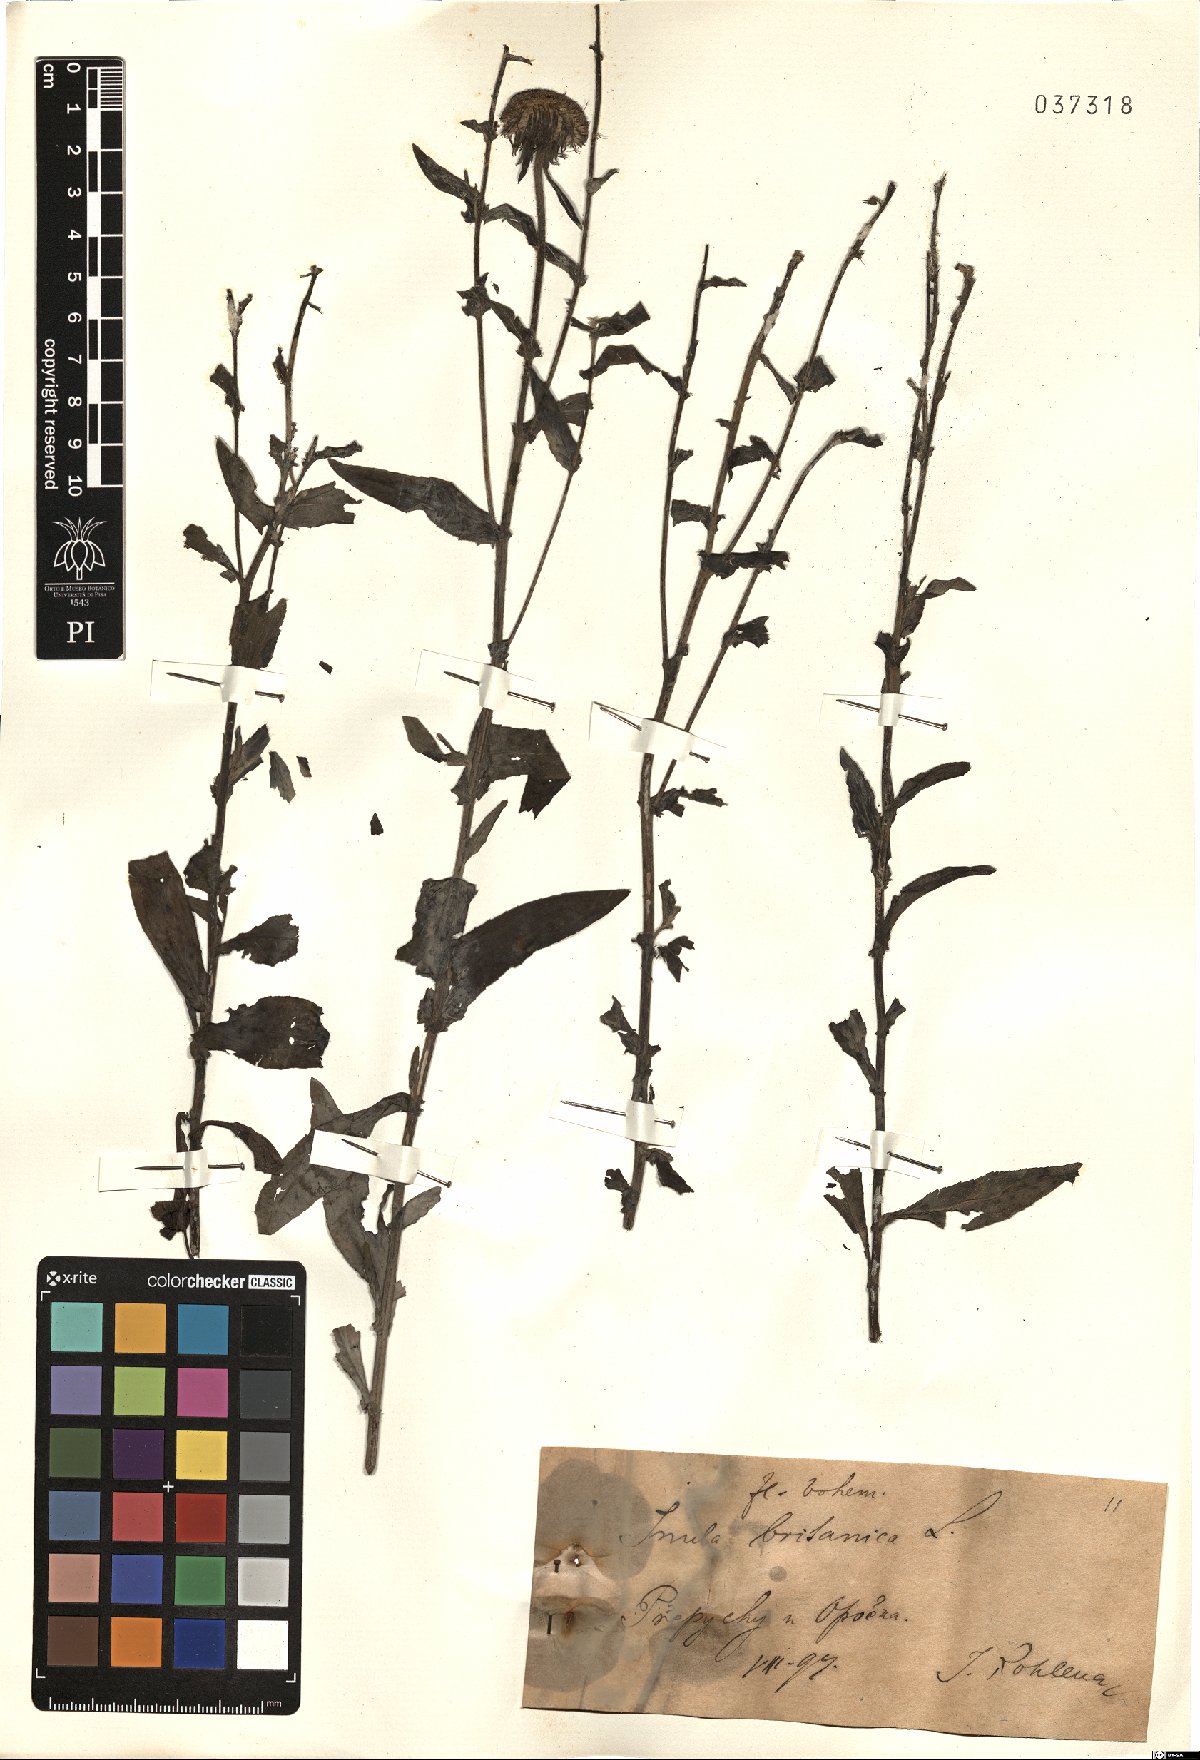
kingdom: Plantae
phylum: Tracheophyta
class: Magnoliopsida
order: Asterales
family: Asteraceae
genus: Pentanema
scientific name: Pentanema britannicum
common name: British elecampane
